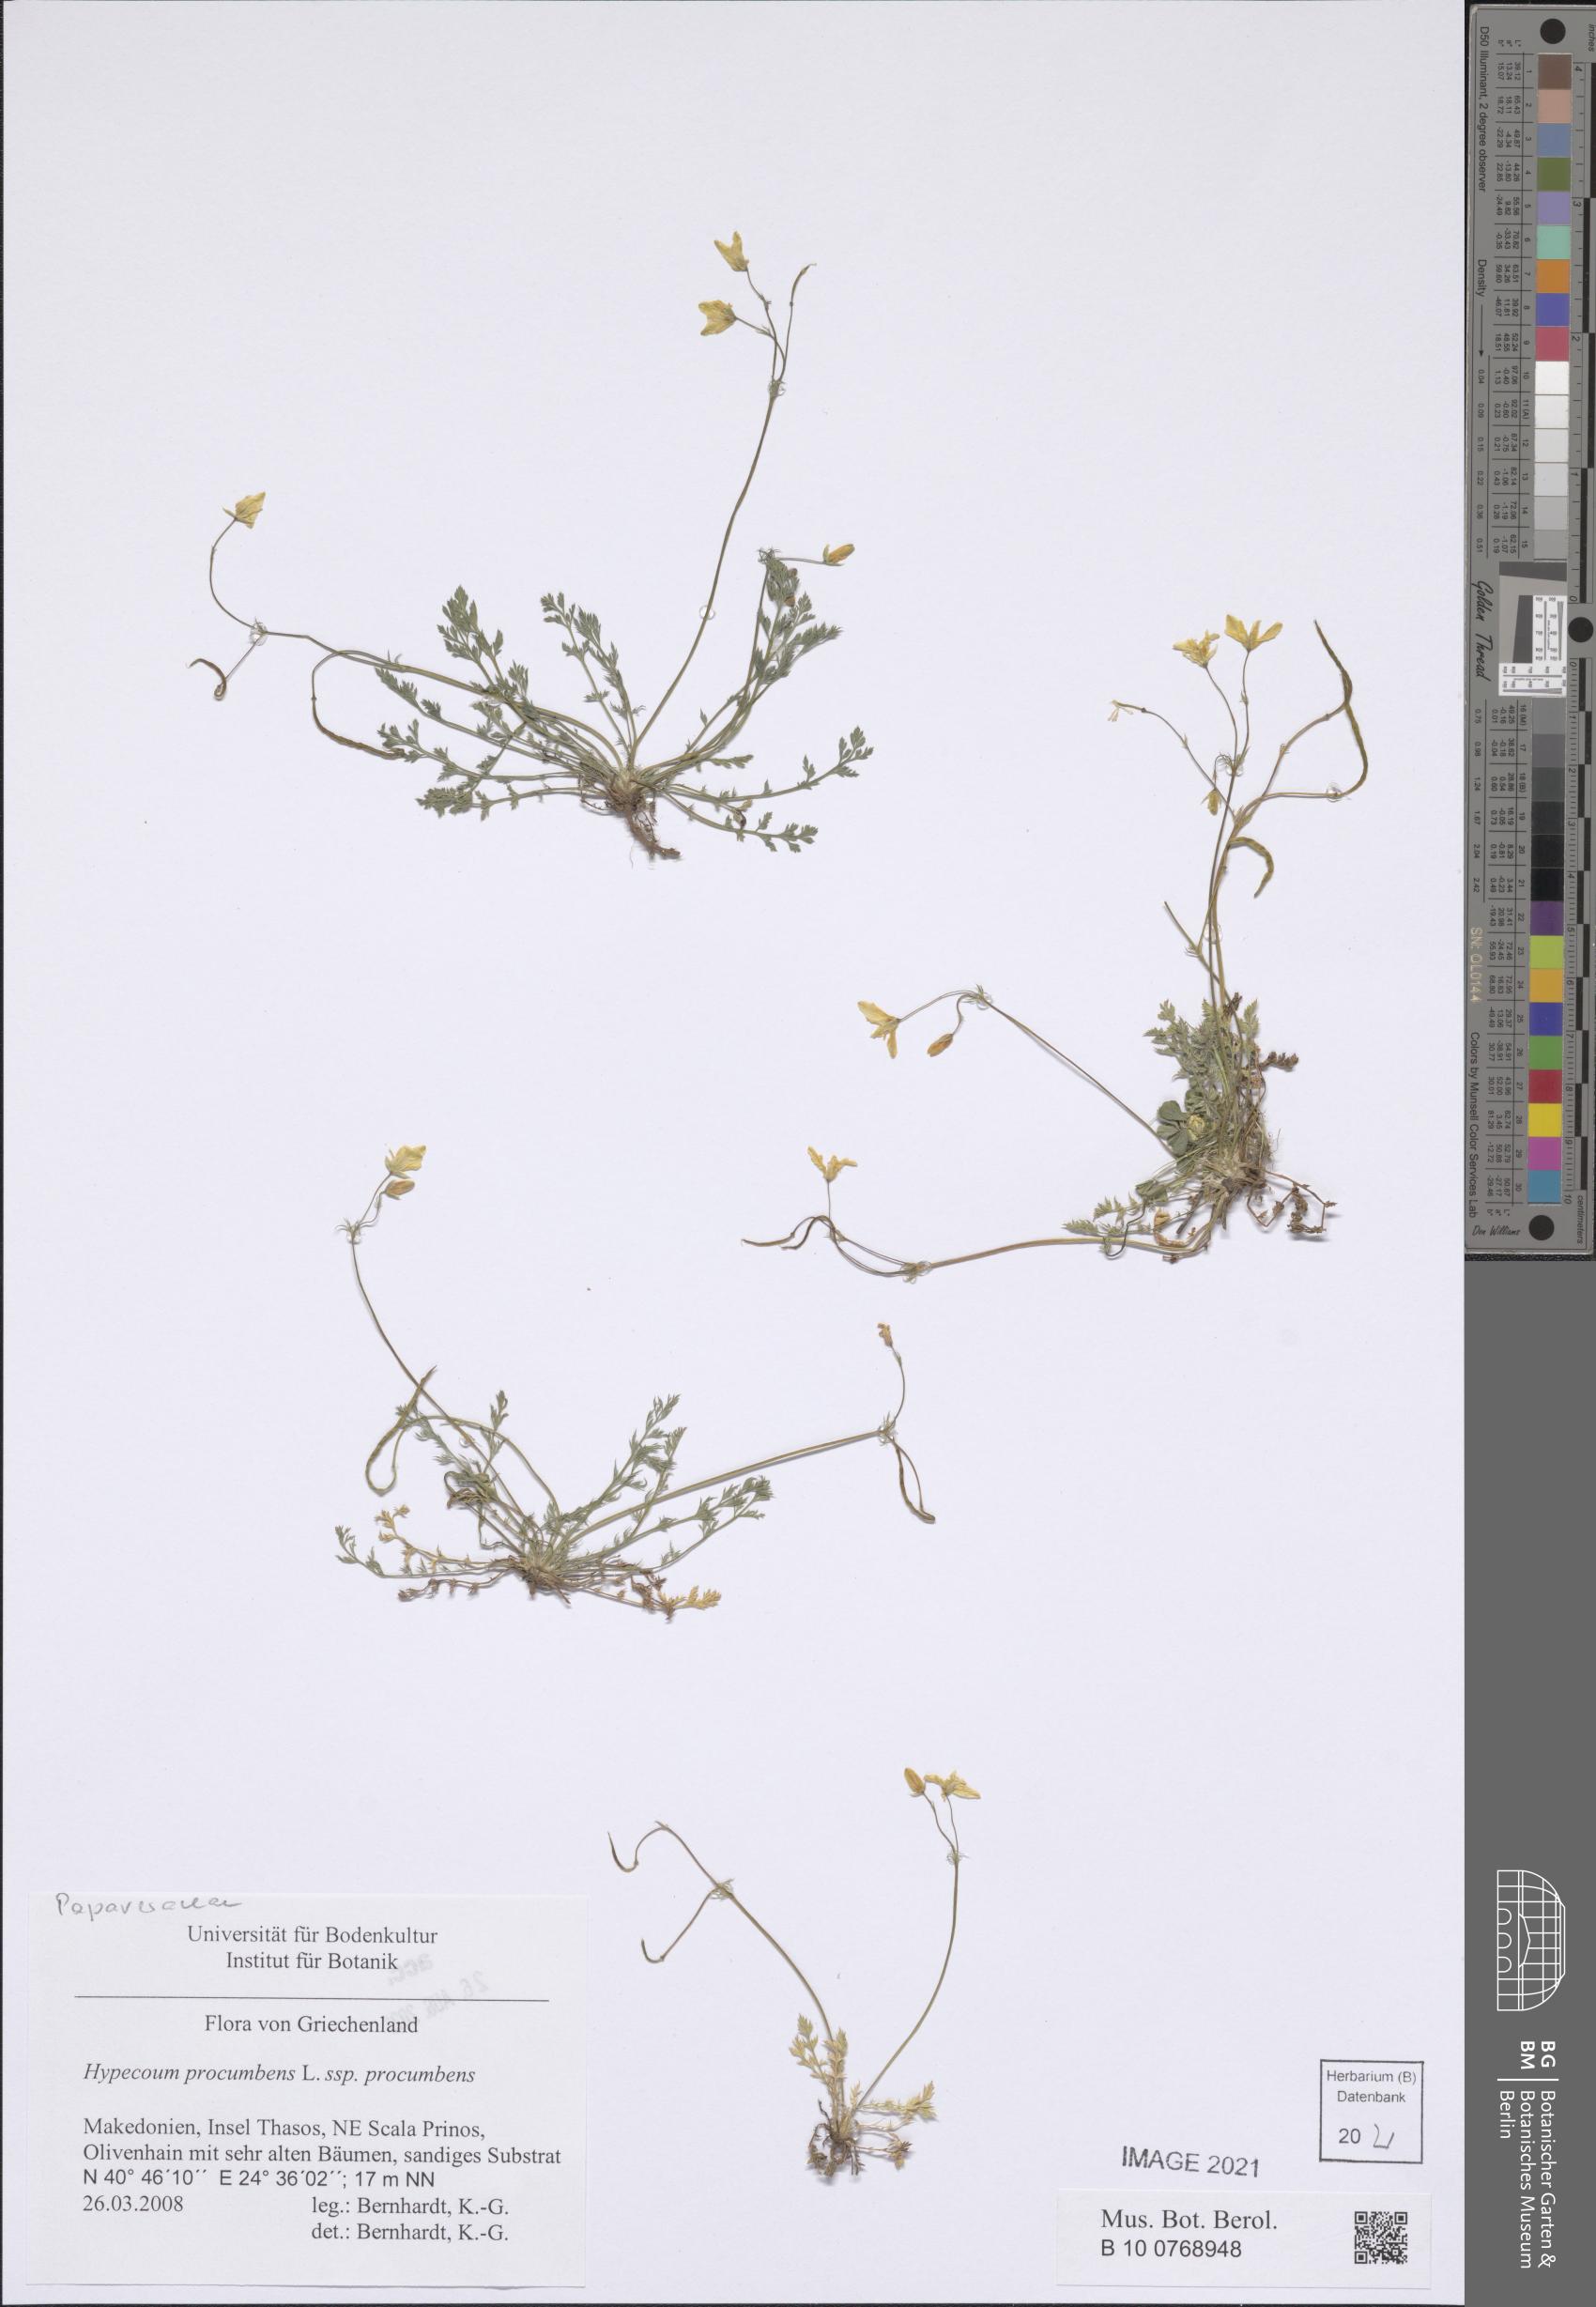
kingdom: Plantae
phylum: Tracheophyta
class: Magnoliopsida
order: Ranunculales
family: Papaveraceae
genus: Hypecoum
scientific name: Hypecoum procumbens
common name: Procumbent hypecoum
